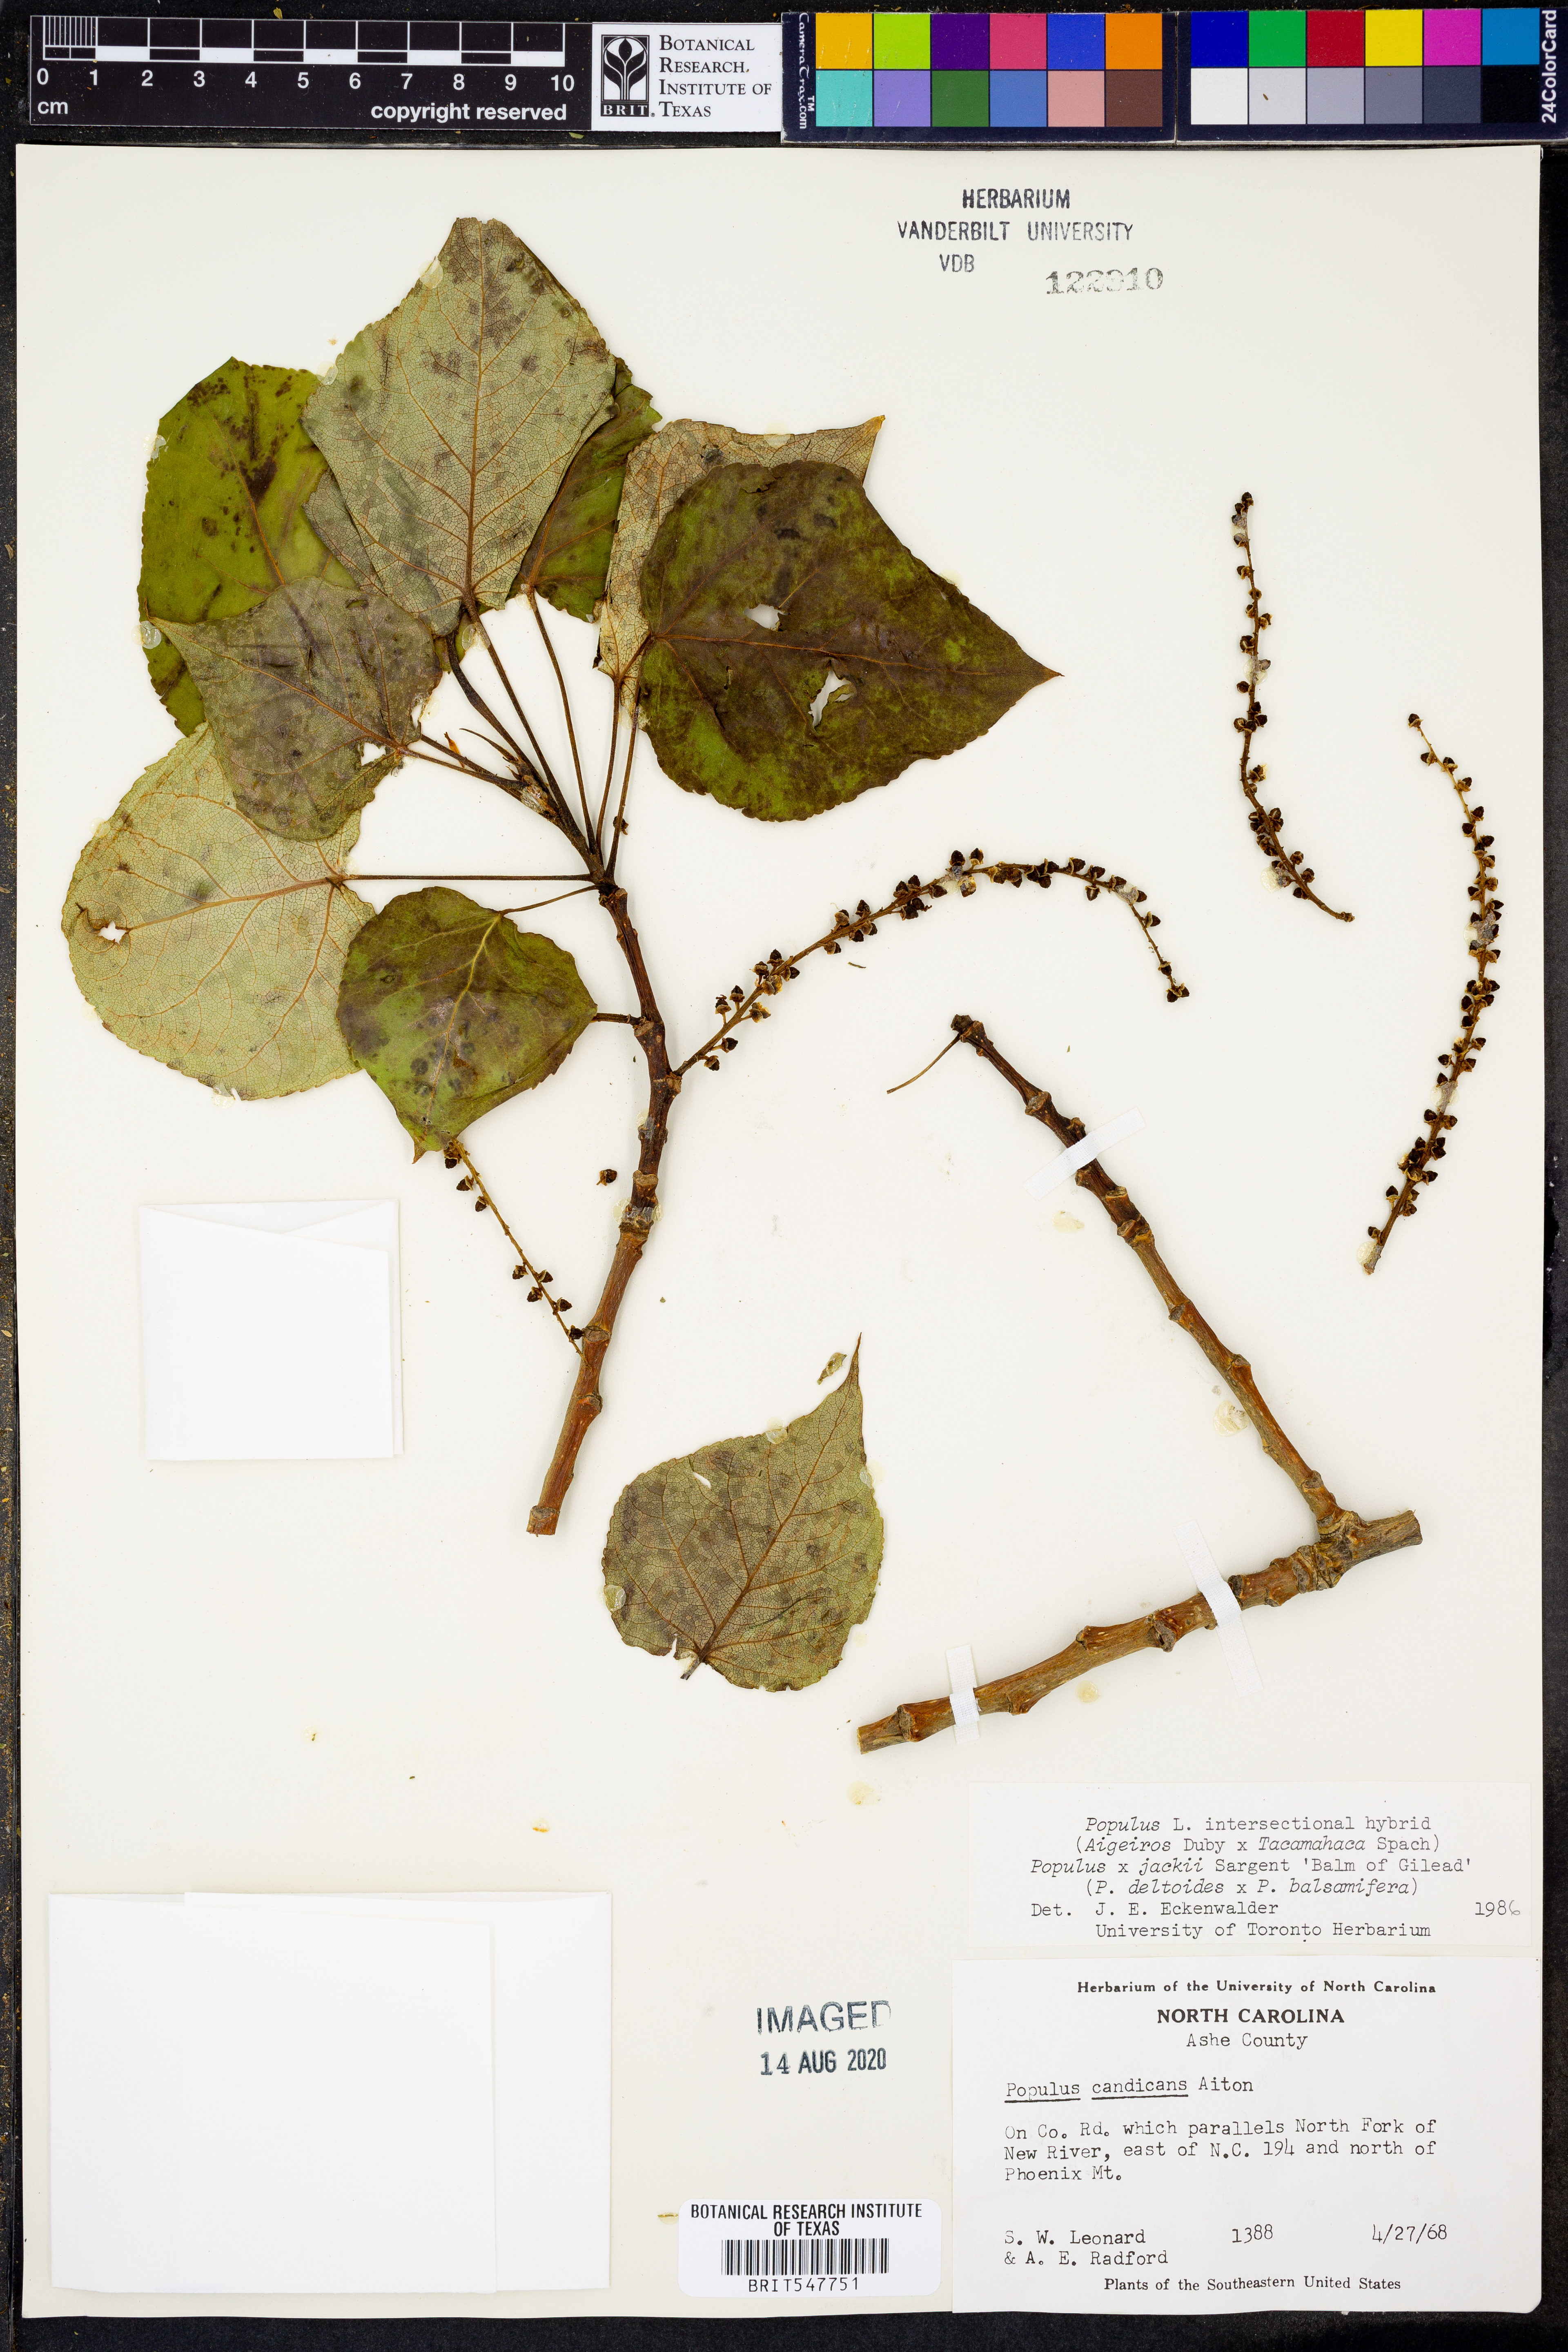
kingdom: Plantae
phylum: Tracheophyta
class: Magnoliopsida
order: Malpighiales
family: Salicaceae
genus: Populus
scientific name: Populus
